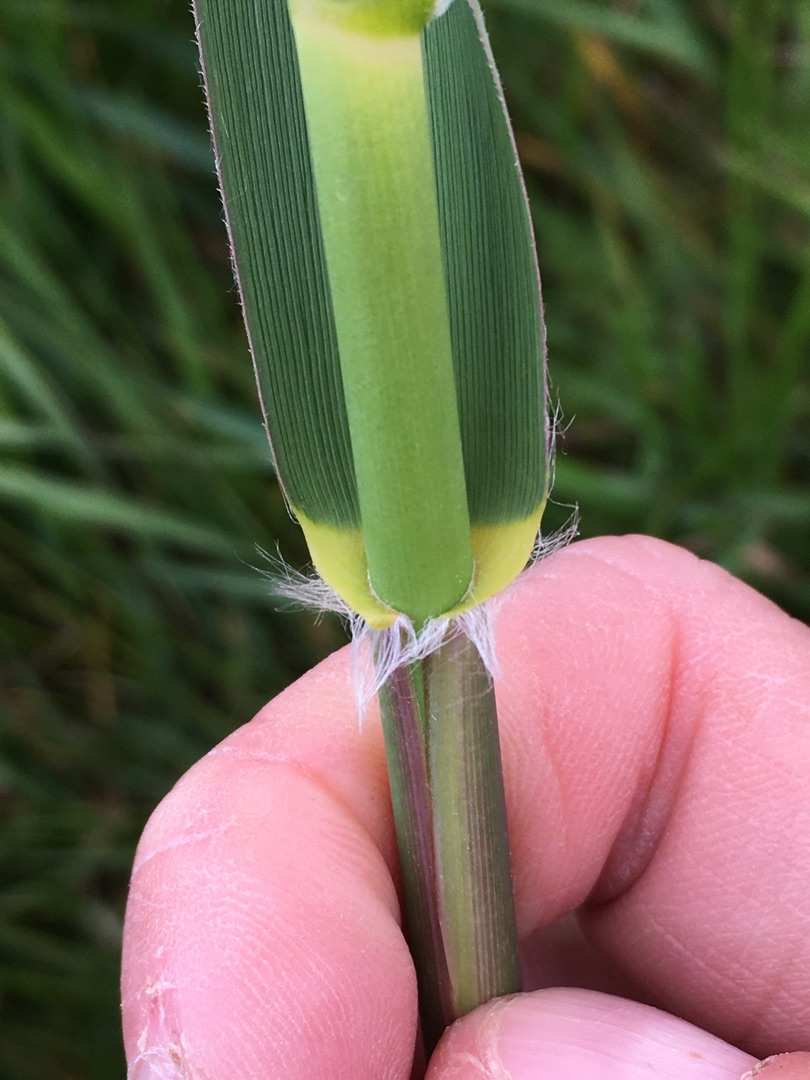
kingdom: Plantae
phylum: Tracheophyta
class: Liliopsida
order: Poales
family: Poaceae
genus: Phragmites
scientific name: Phragmites australis
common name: Tagrør
